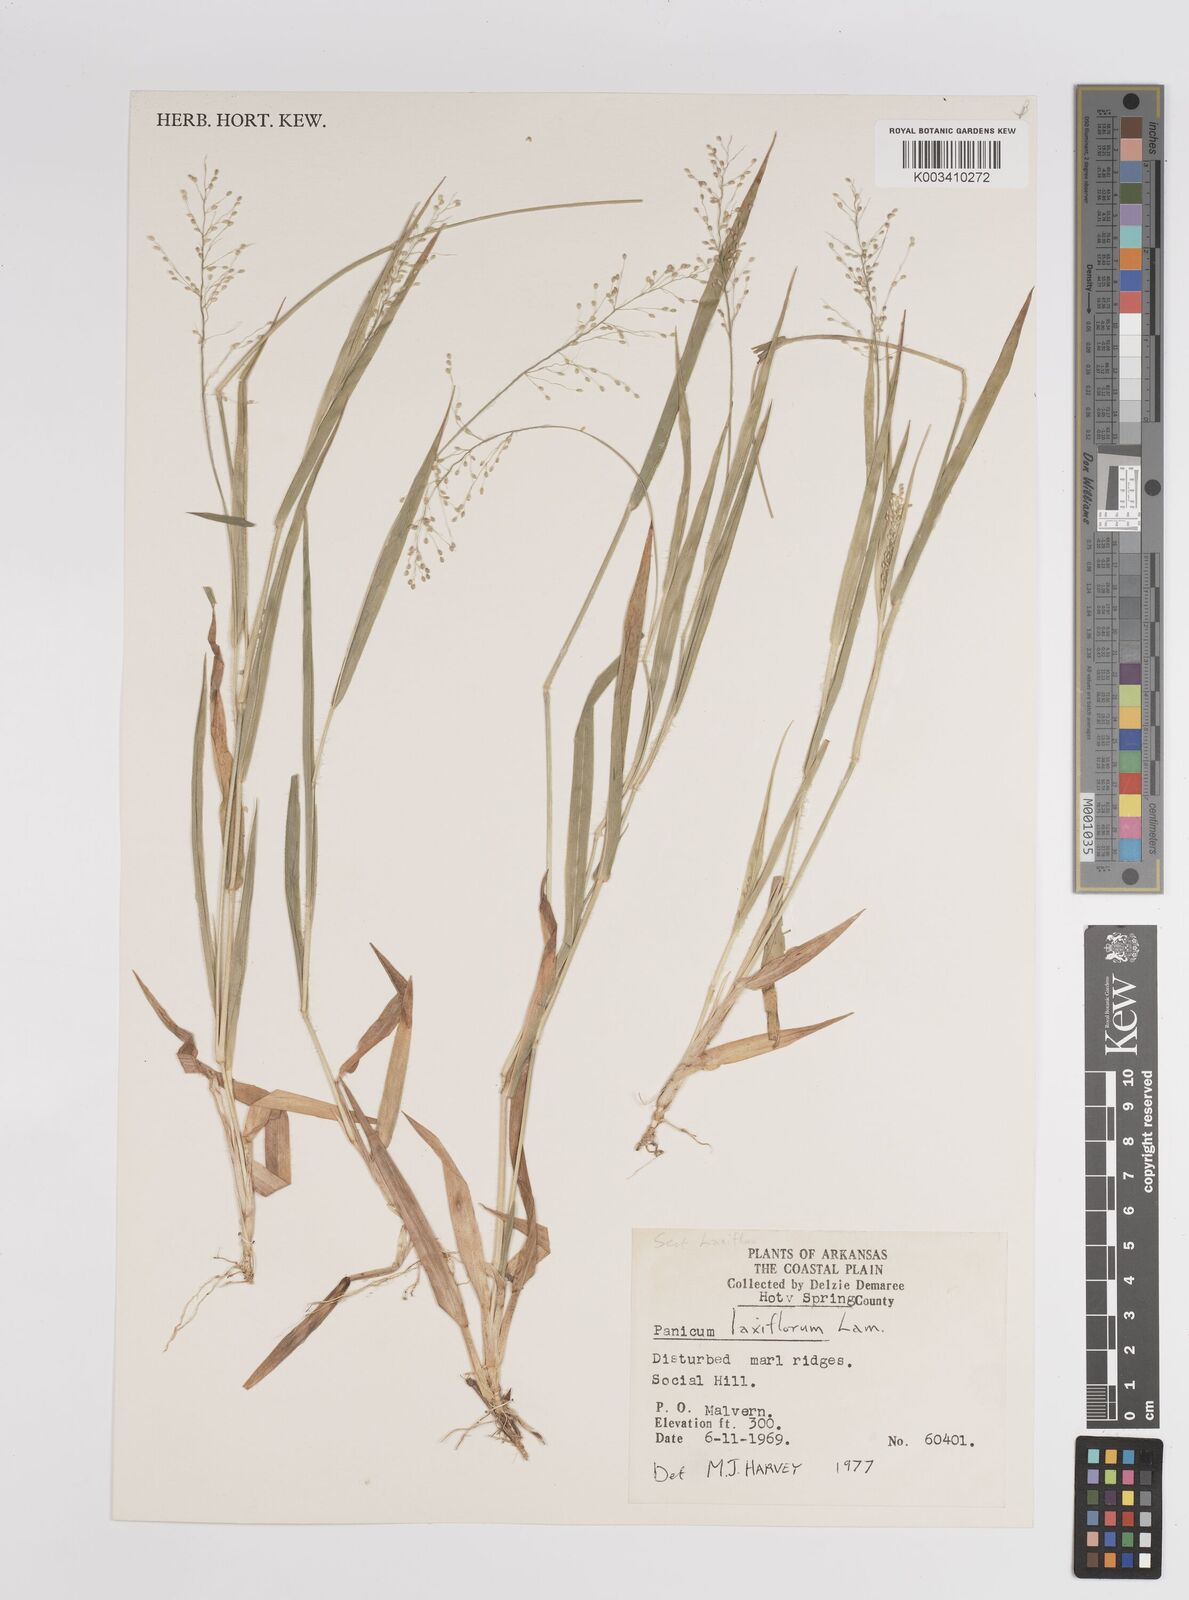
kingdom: Plantae
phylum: Tracheophyta
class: Liliopsida
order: Poales
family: Poaceae
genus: Dichanthelium
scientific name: Dichanthelium laxiflorum
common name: Soft-tuft panic grass
